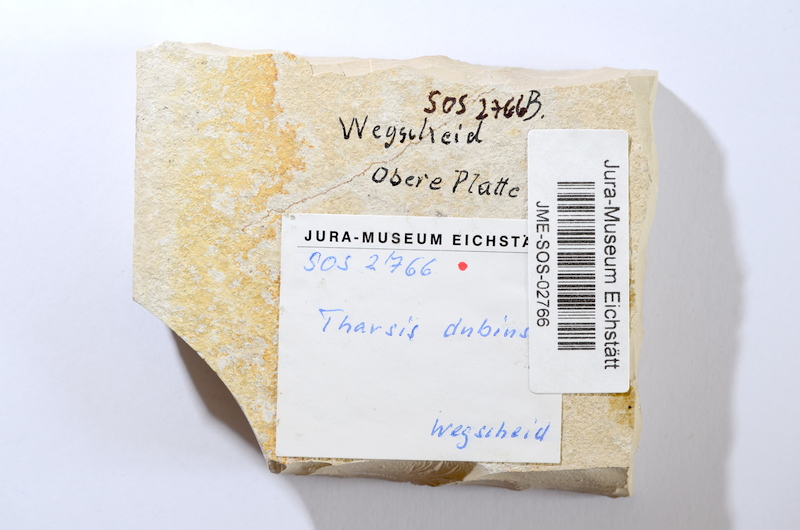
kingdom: Animalia
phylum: Chordata
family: Ascalaboidae
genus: Tharsis
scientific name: Tharsis dubius
